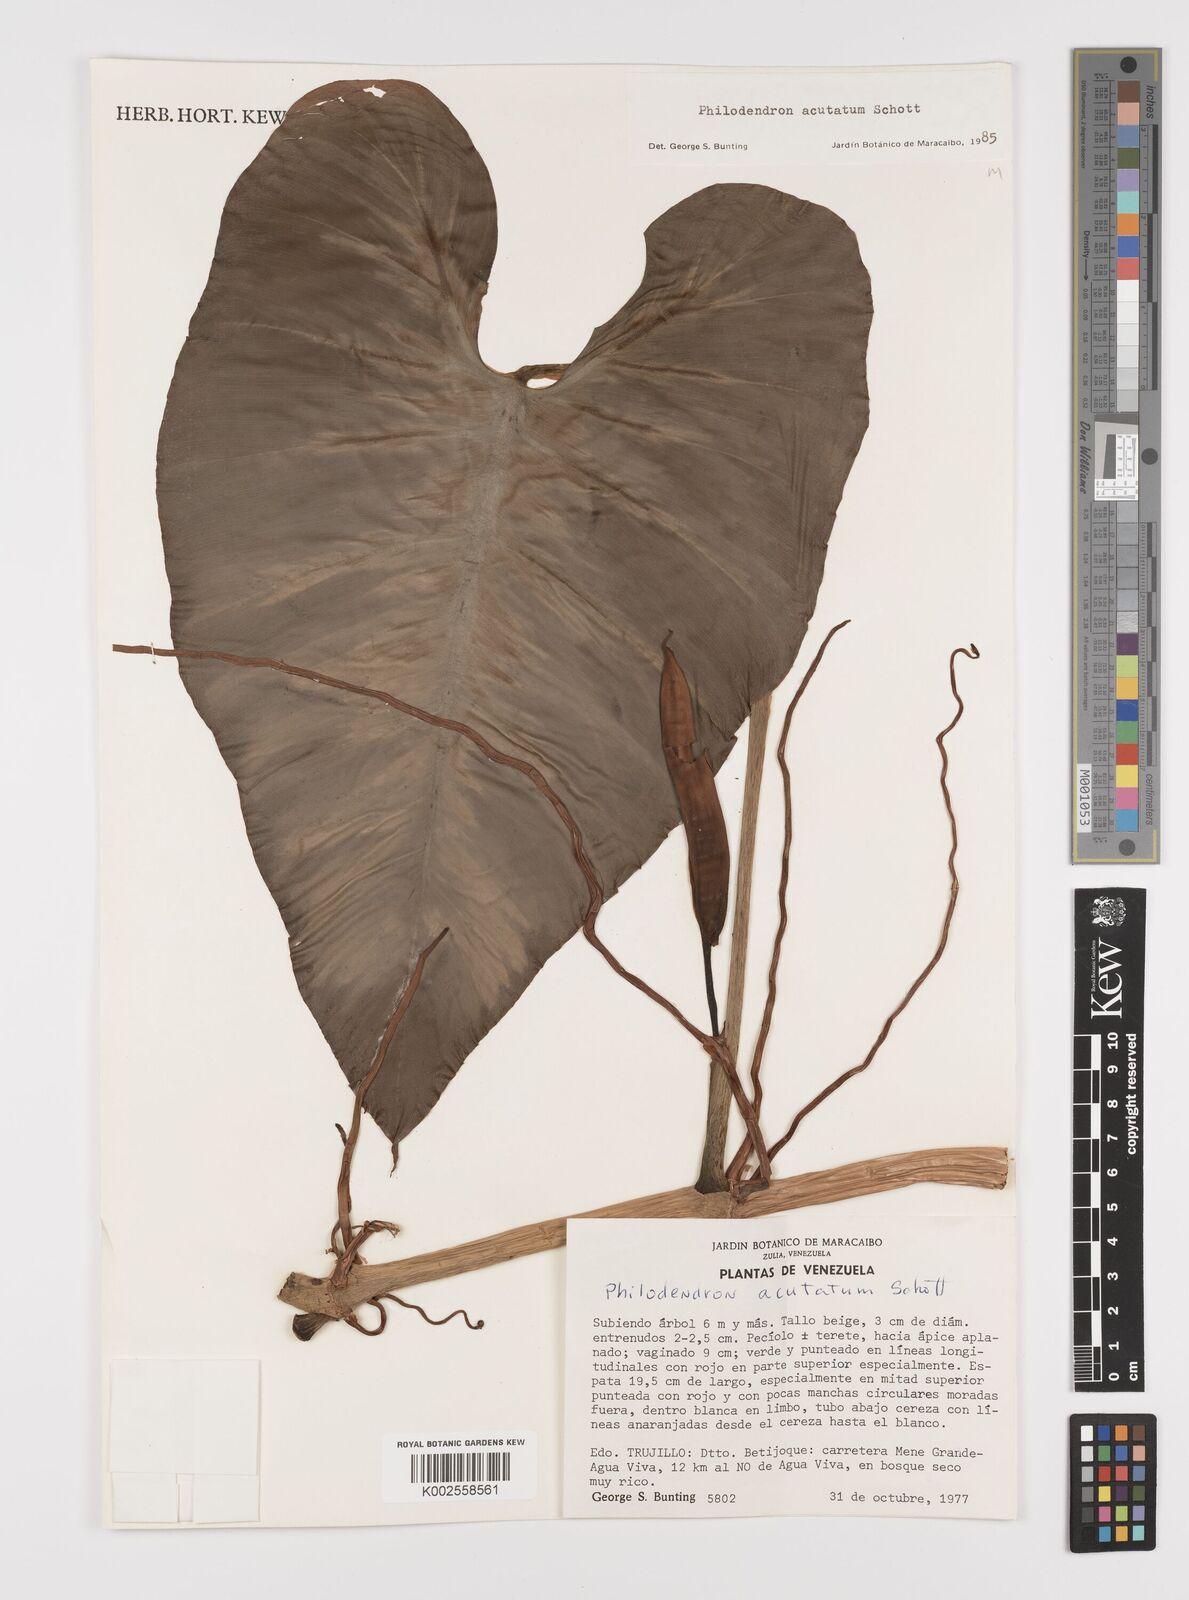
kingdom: Plantae
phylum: Tracheophyta
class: Liliopsida
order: Alismatales
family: Araceae
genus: Philodendron
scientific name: Philodendron quinquenervium
